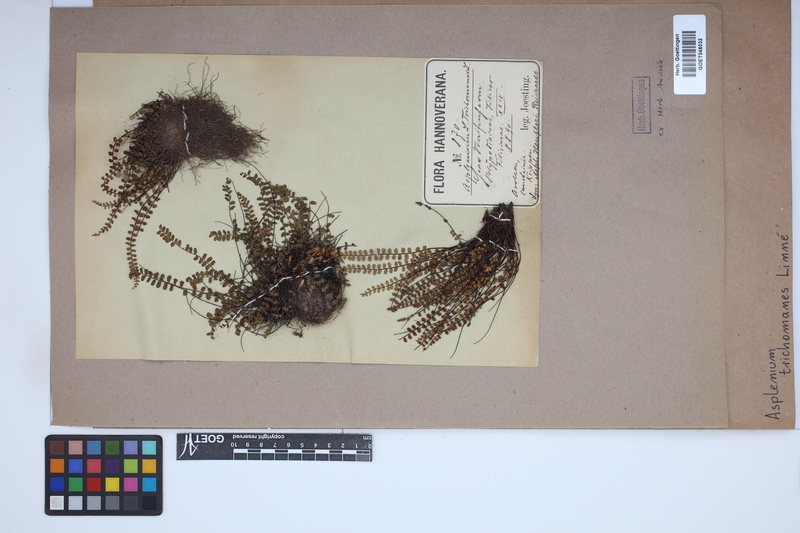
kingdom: Plantae
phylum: Tracheophyta
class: Polypodiopsida
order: Polypodiales
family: Aspleniaceae
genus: Asplenium
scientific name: Asplenium trichomanes
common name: Maidenhair spleenwort
